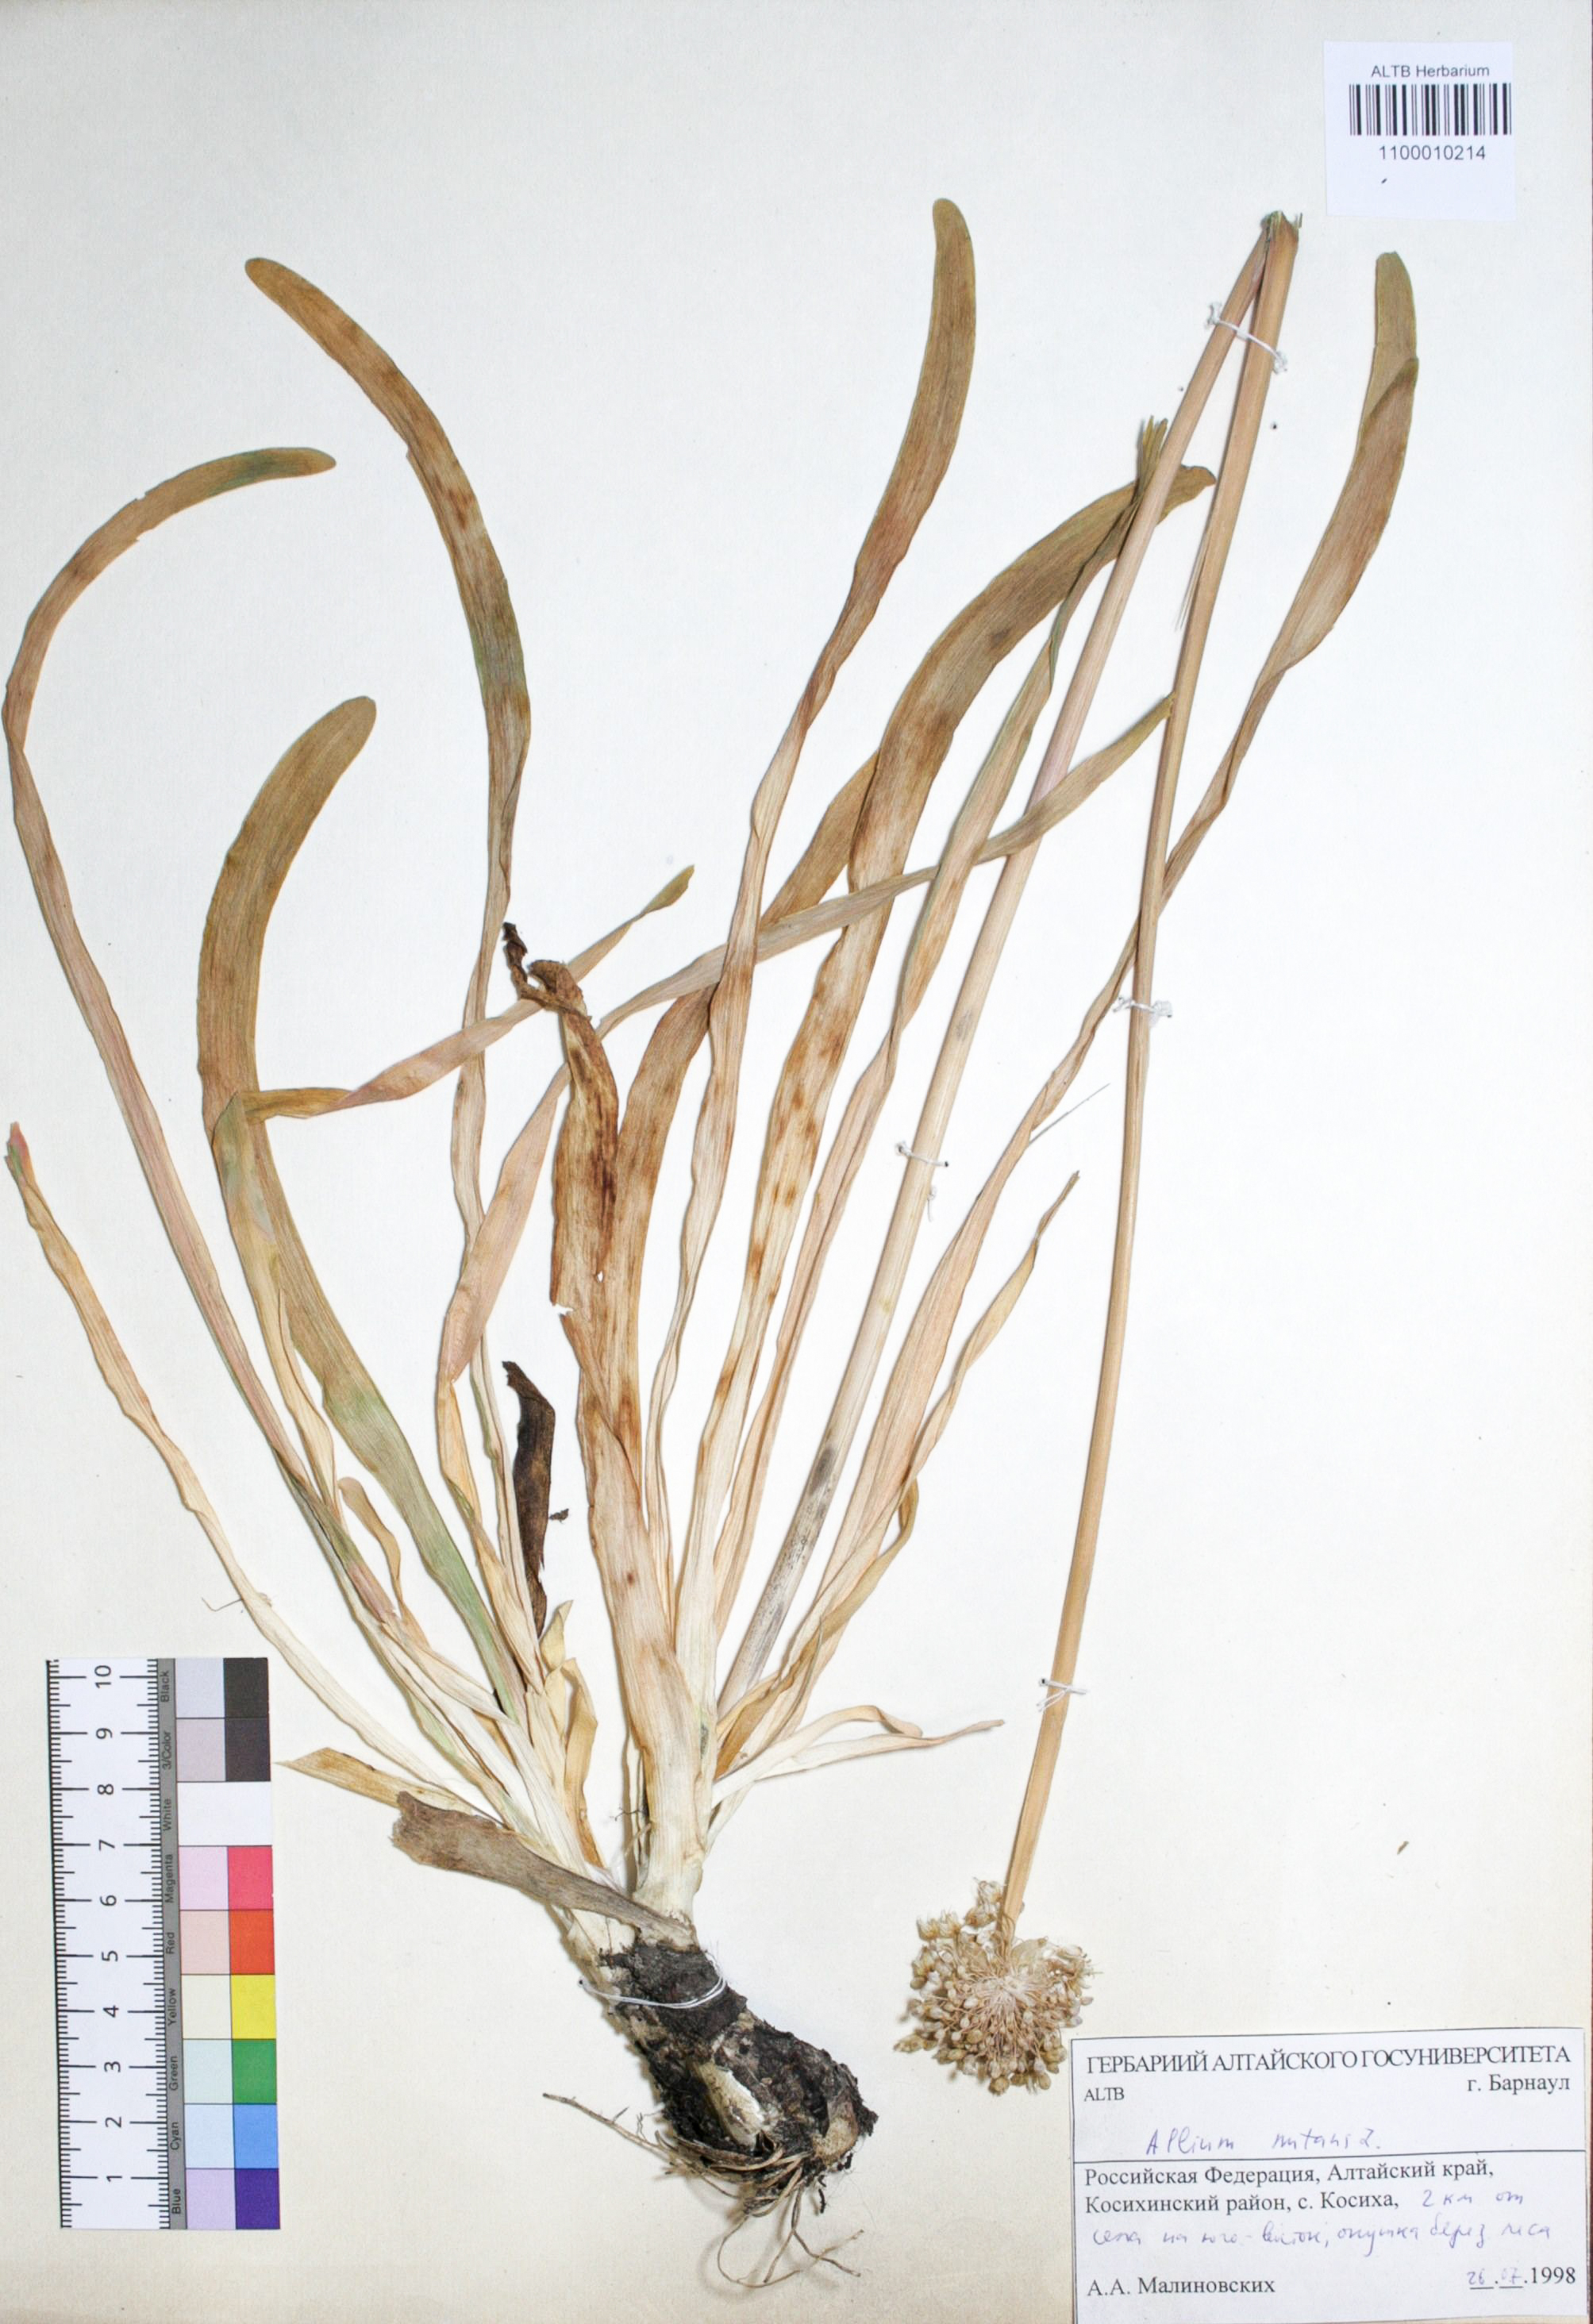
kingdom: Plantae
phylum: Tracheophyta
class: Liliopsida
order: Asparagales
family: Amaryllidaceae
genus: Allium
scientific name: Allium nutans
